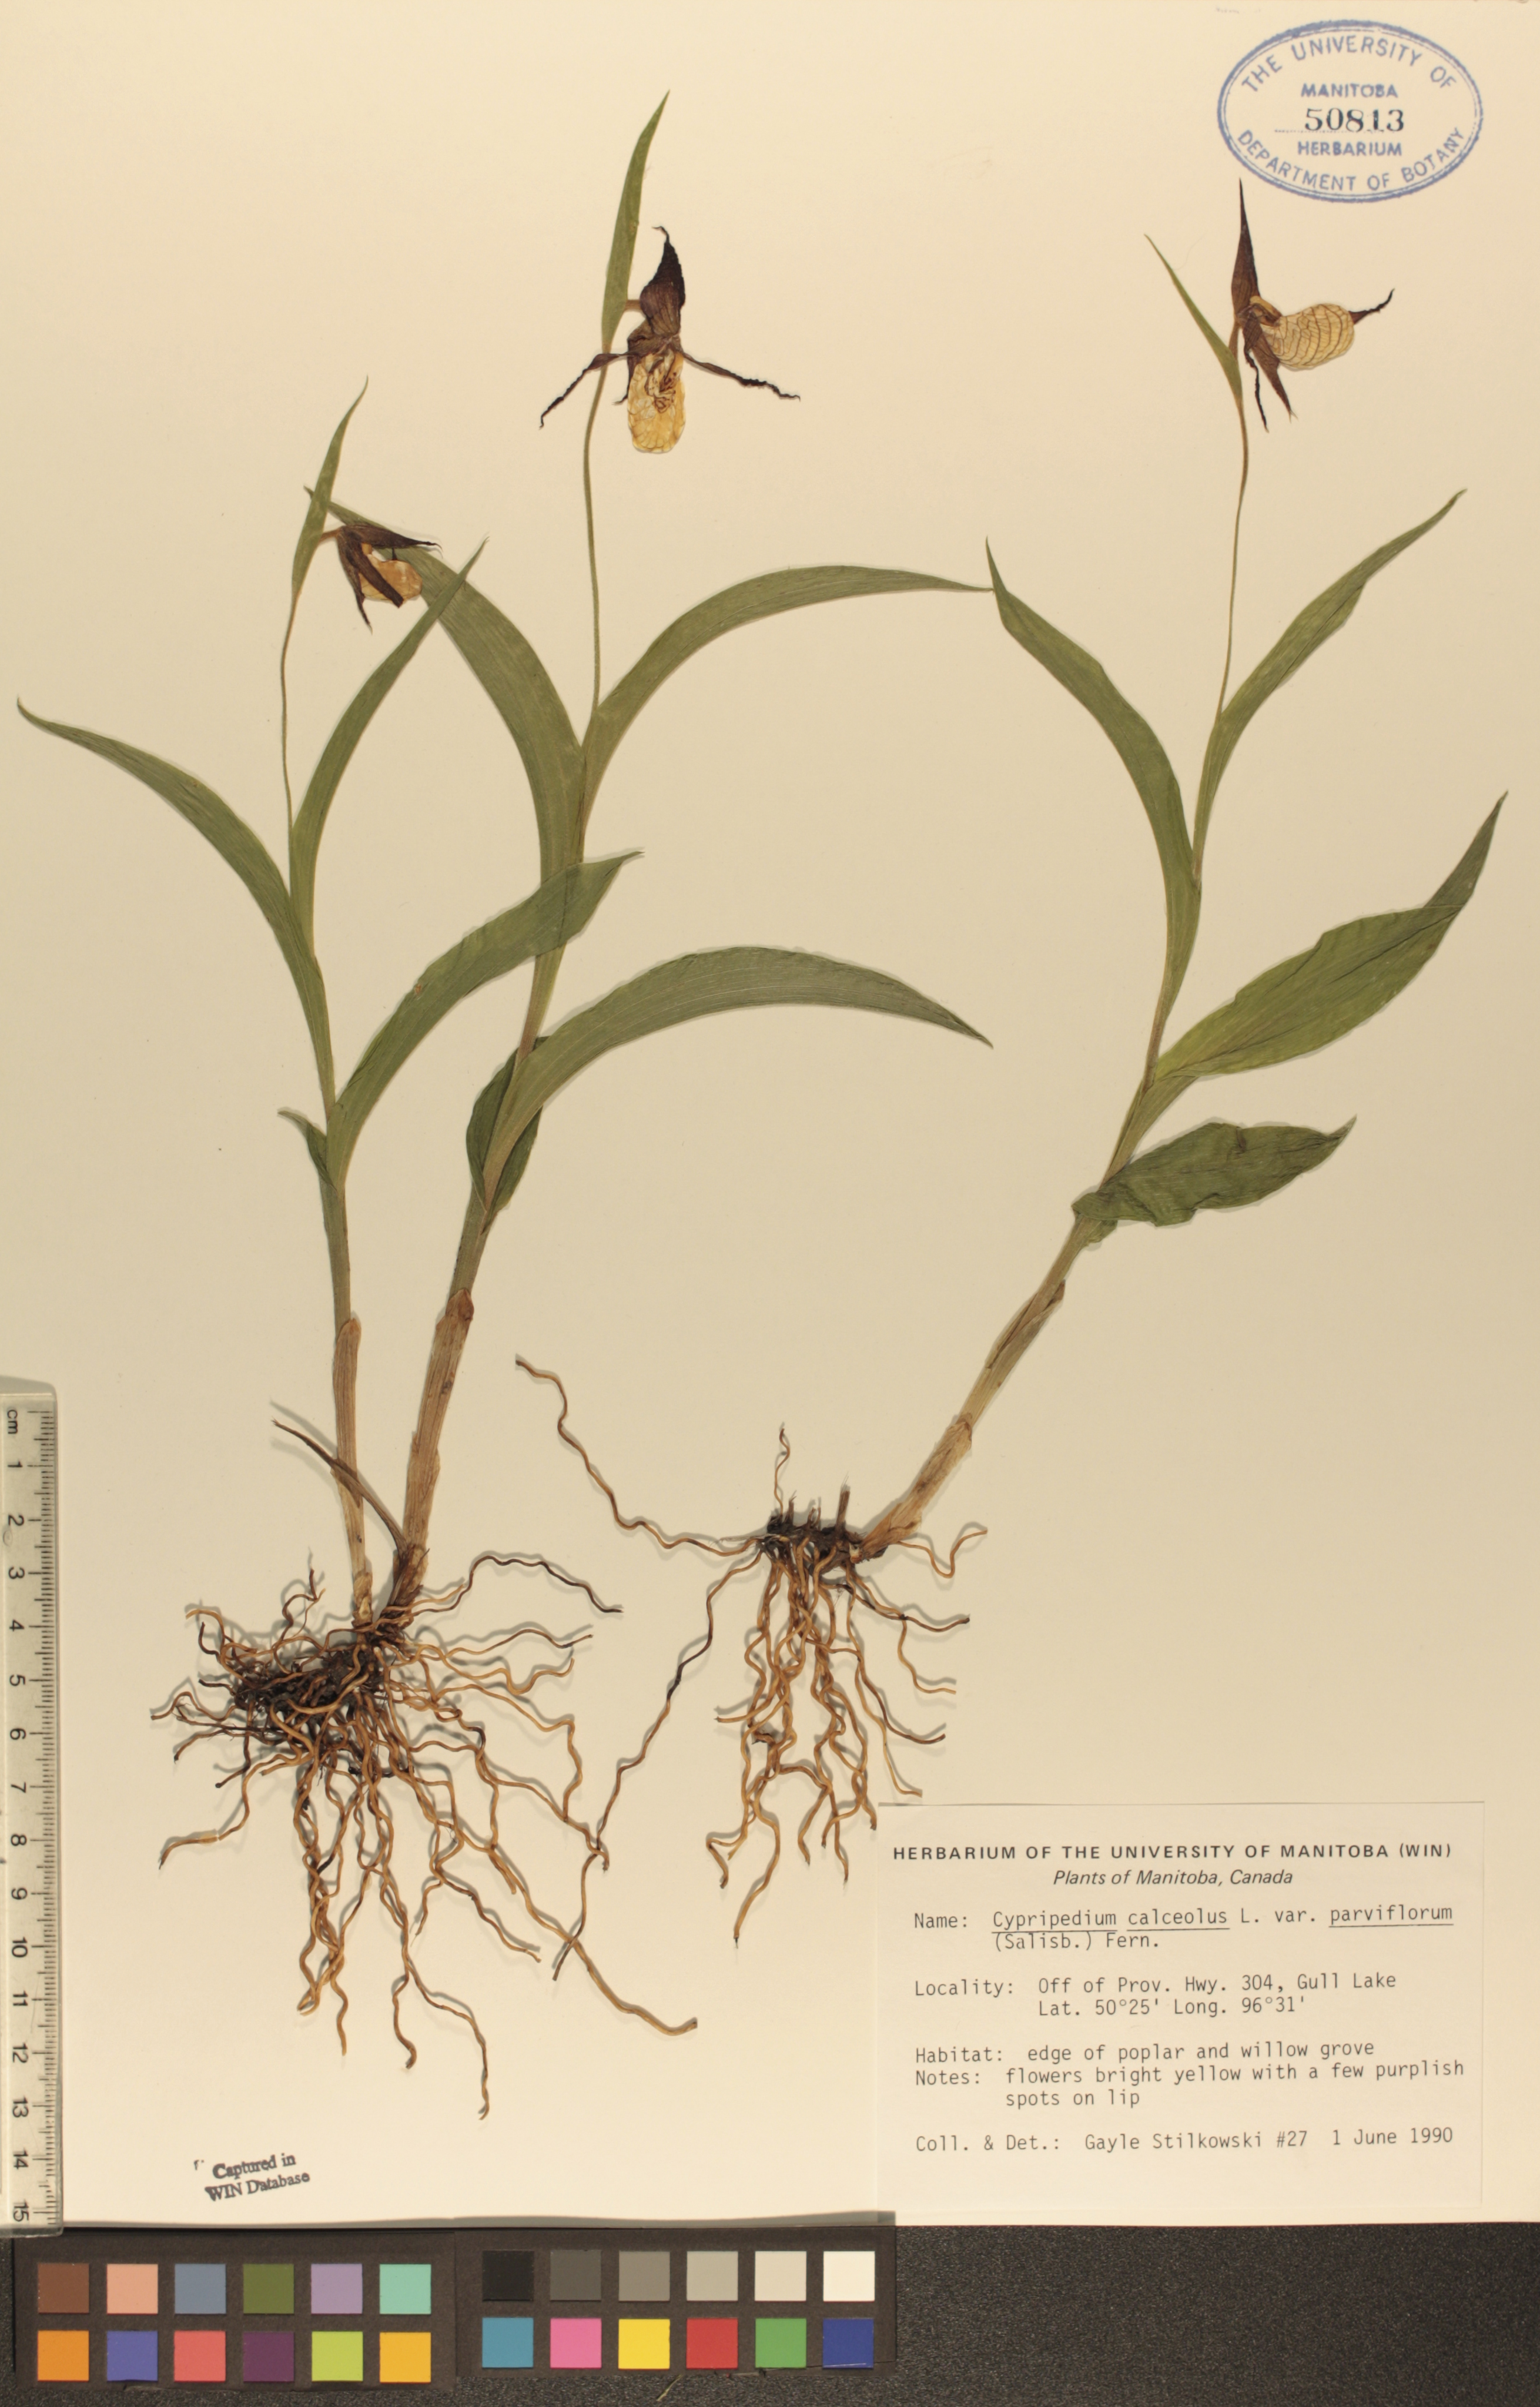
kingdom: Plantae
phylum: Tracheophyta
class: Liliopsida
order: Asparagales
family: Orchidaceae
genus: Cypripedium
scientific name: Cypripedium parviflorum
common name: American yellow lady's-slipper
